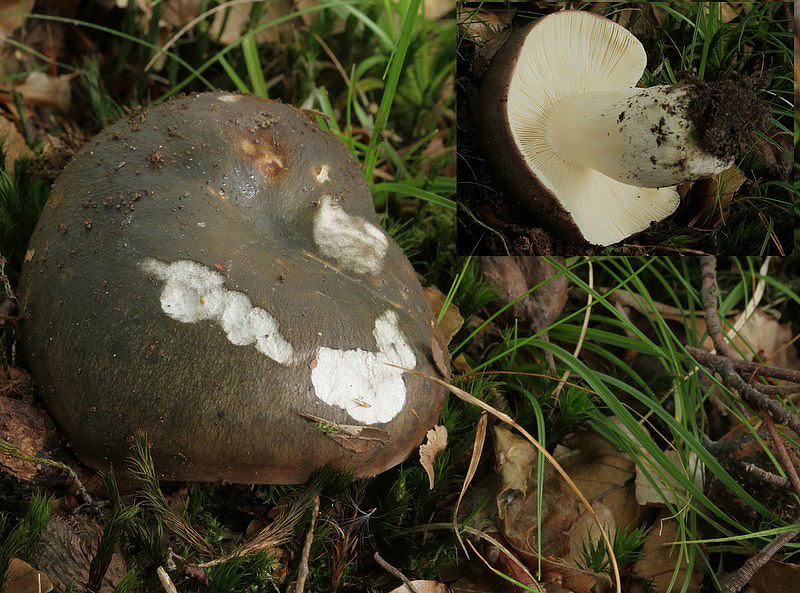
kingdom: Fungi
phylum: Basidiomycota
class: Agaricomycetes
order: Russulales
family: Russulaceae
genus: Russula
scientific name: Russula cyanoxantha
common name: broget skørhat
